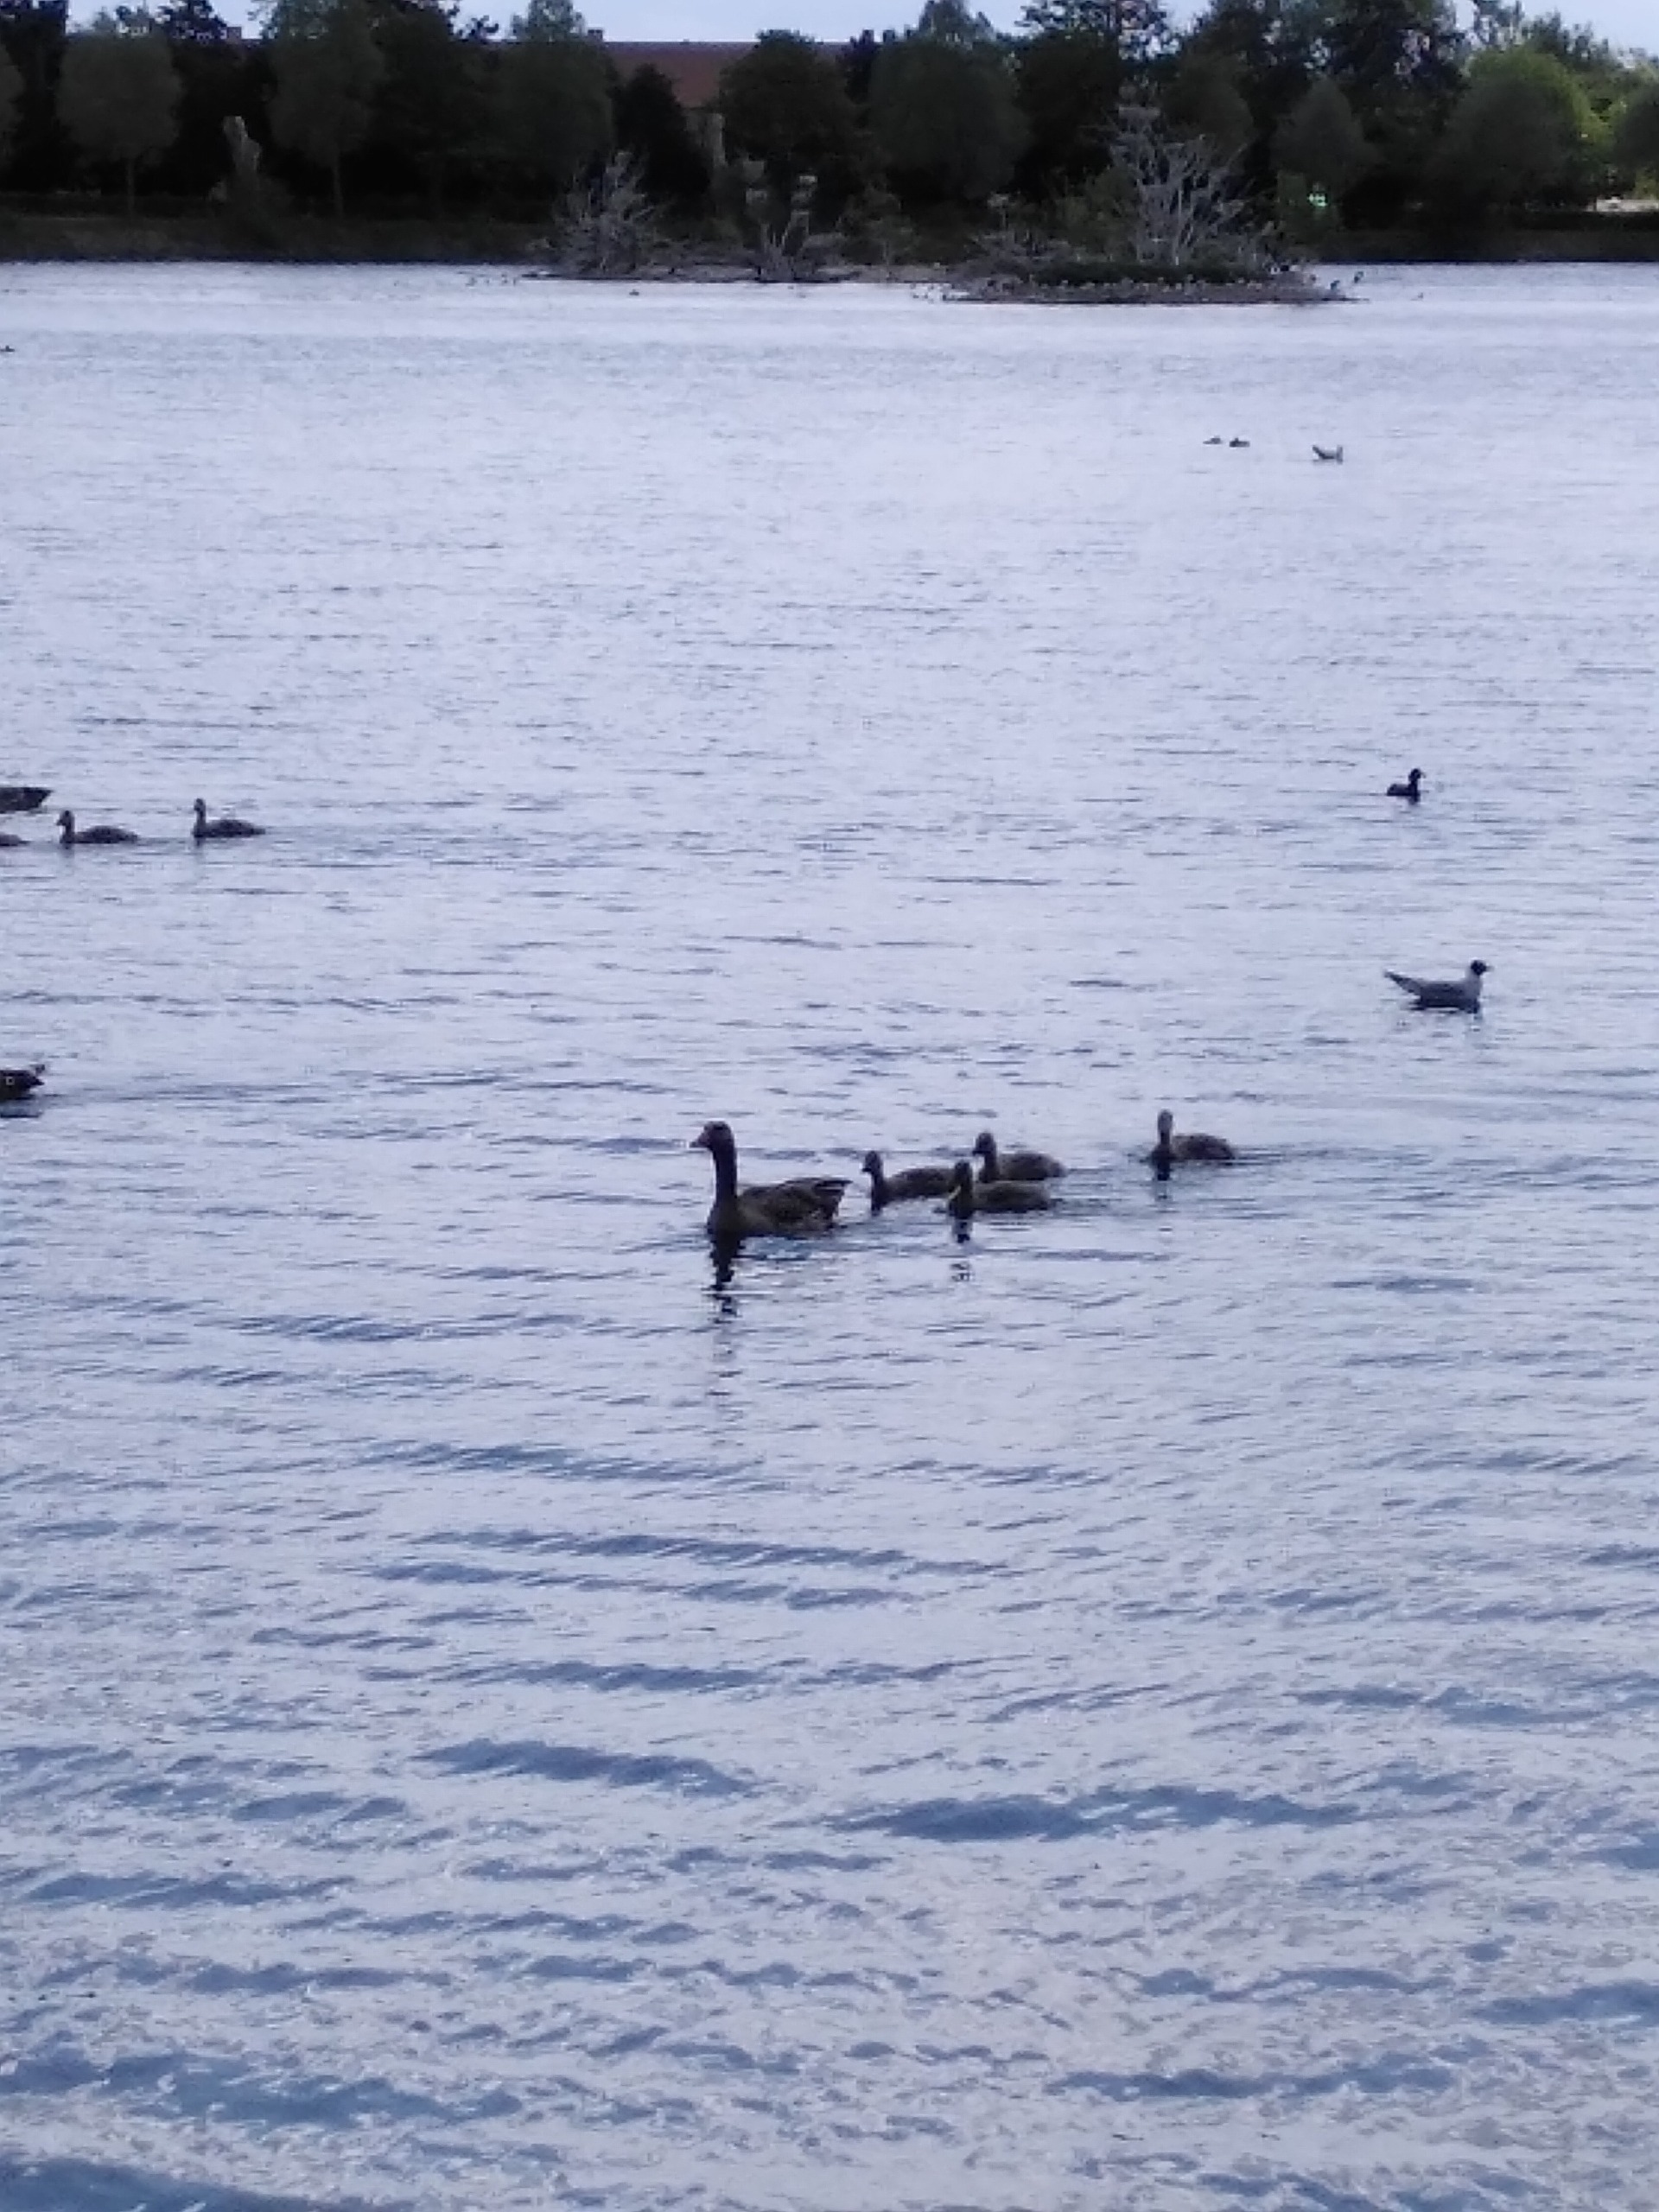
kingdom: Animalia
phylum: Chordata
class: Aves
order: Anseriformes
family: Anatidae
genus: Anser
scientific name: Anser anser
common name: Grågås
